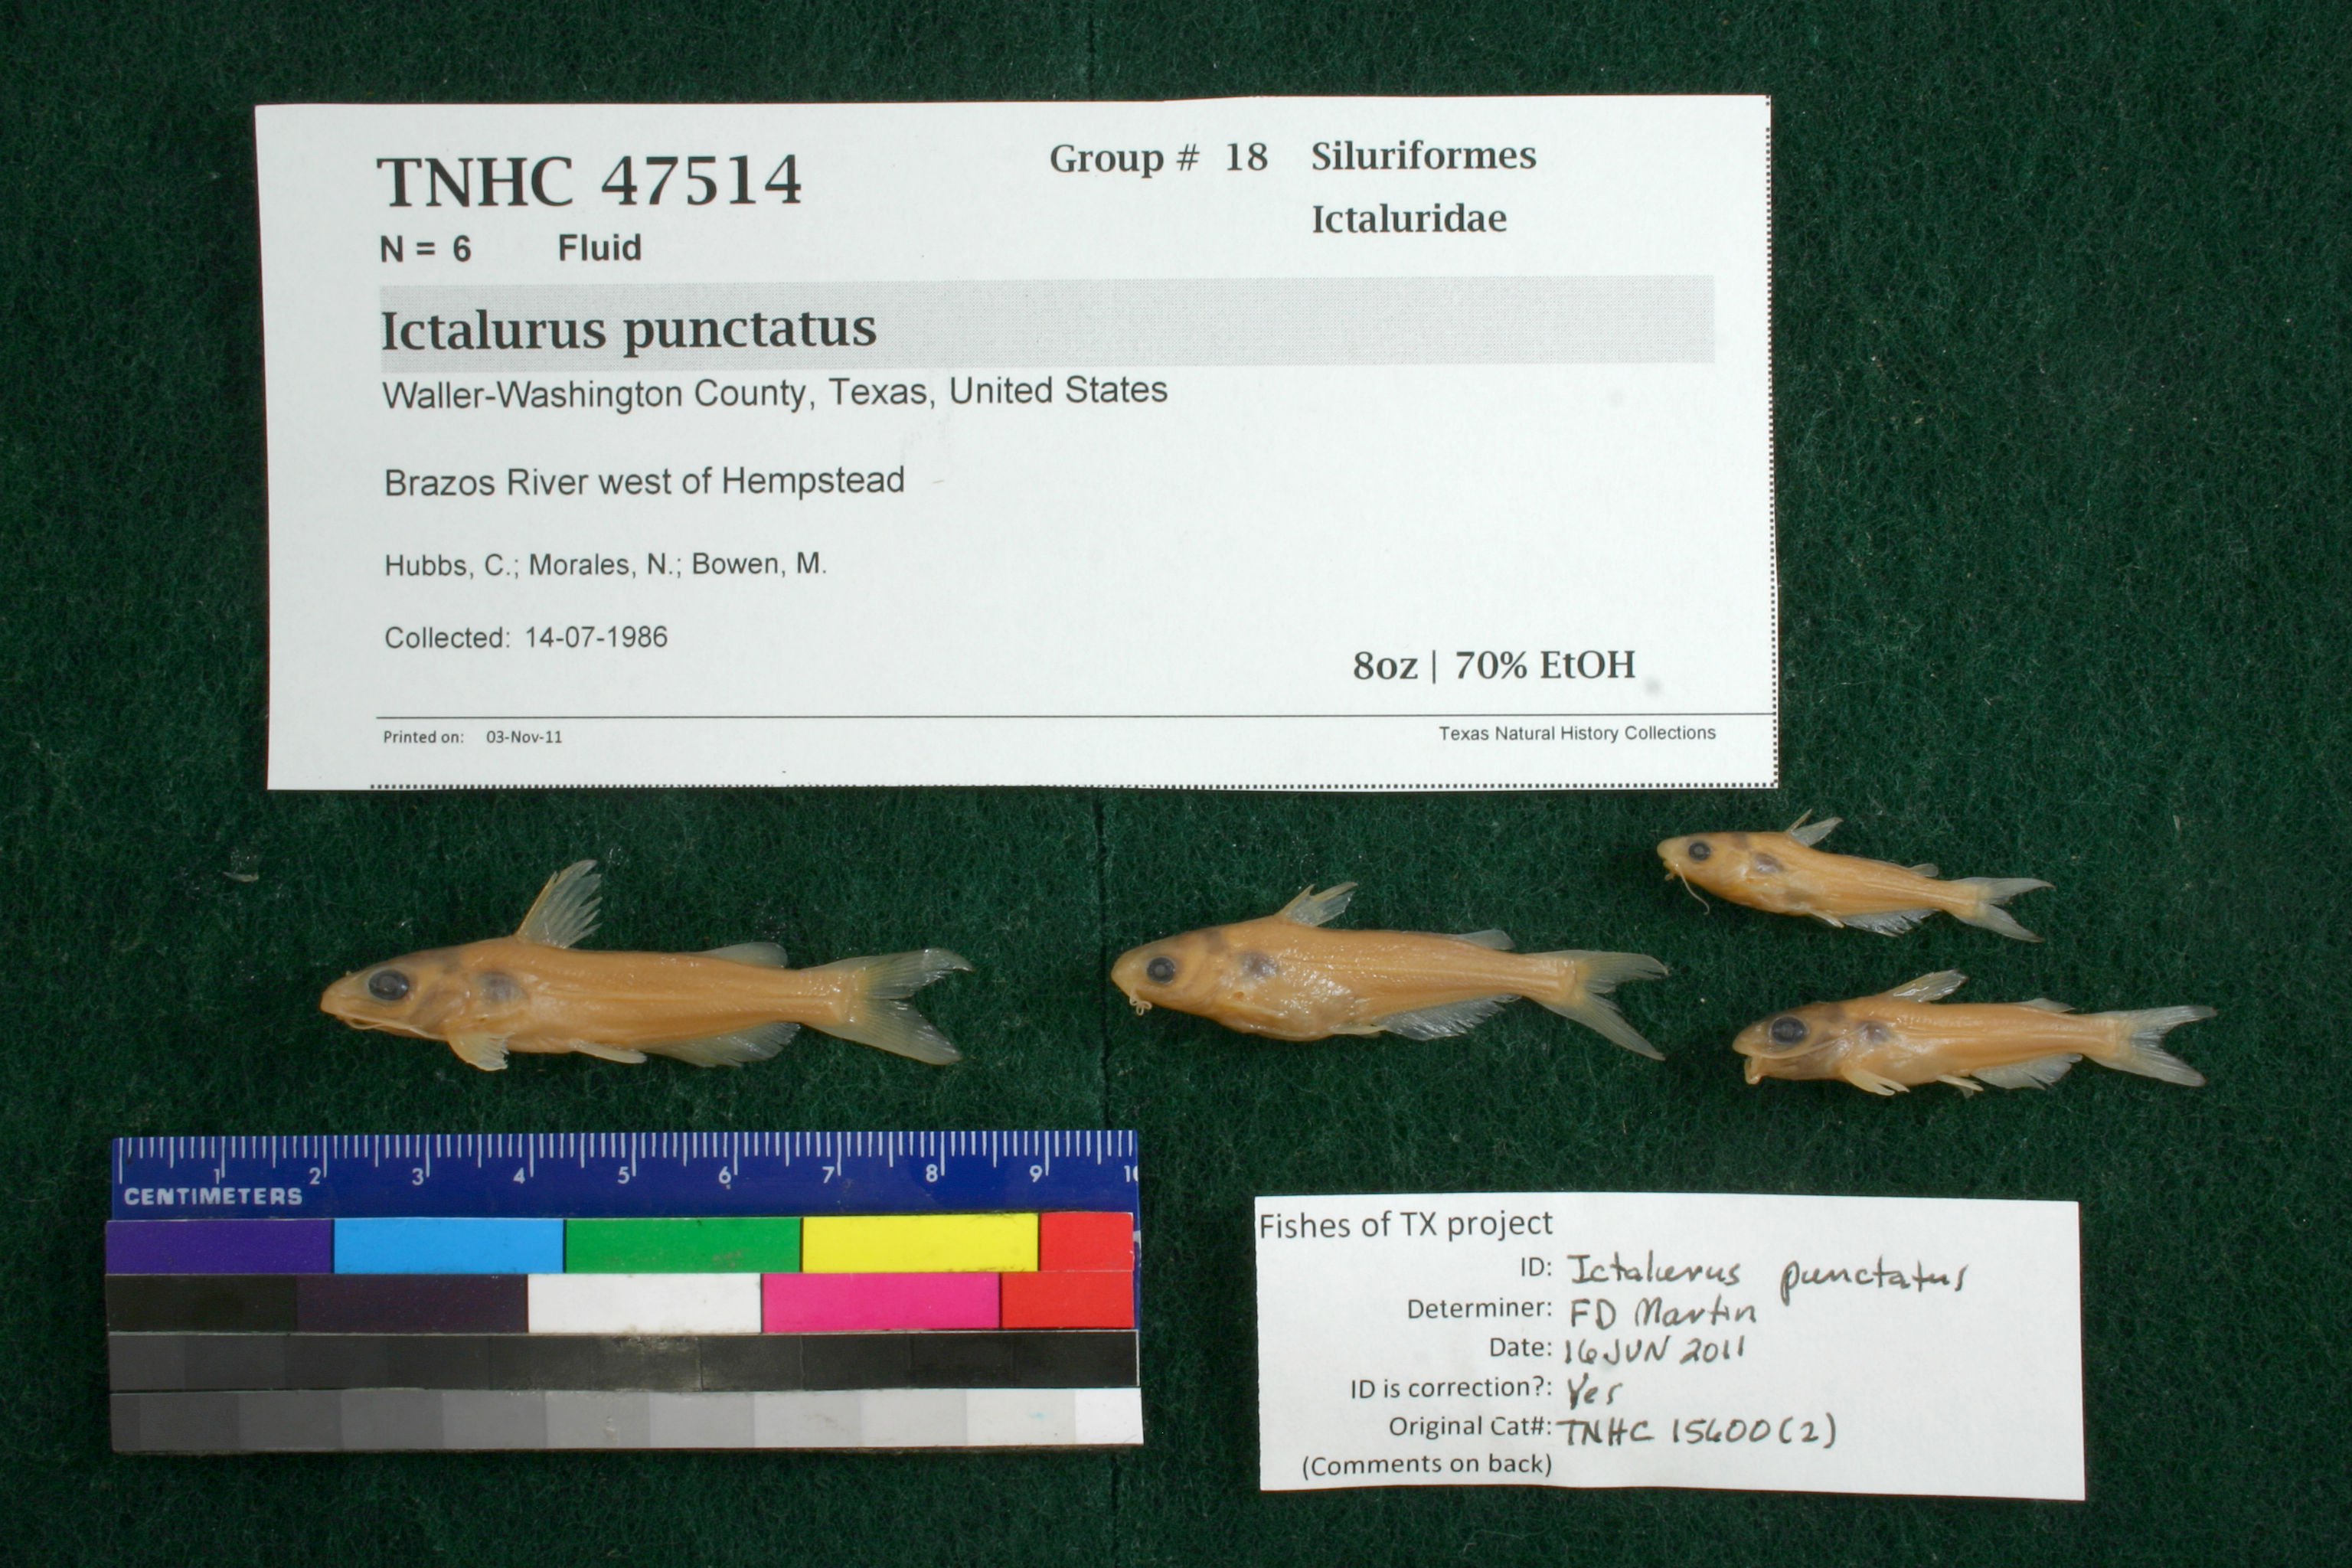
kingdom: Animalia
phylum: Chordata
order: Siluriformes
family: Ictaluridae
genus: Ictalurus
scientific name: Ictalurus punctatus
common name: Channel catfish
